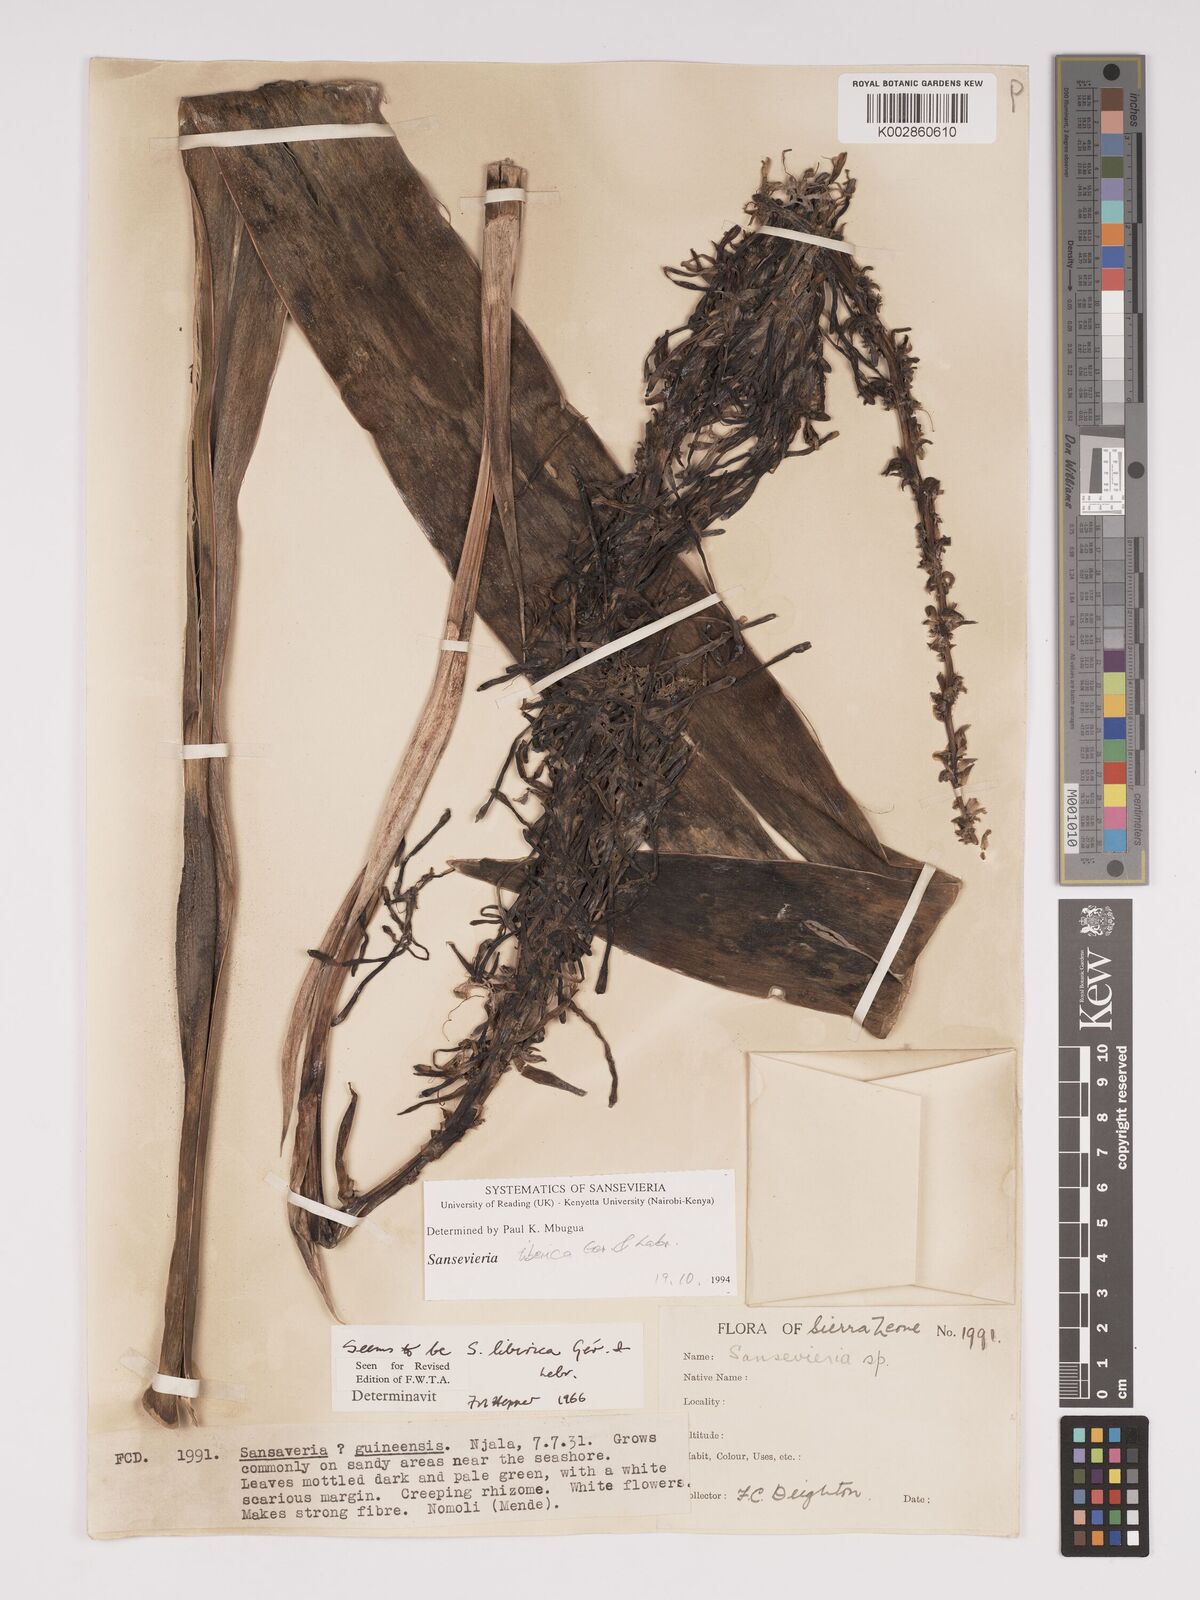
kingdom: Plantae
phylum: Tracheophyta
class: Liliopsida
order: Asparagales
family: Asparagaceae
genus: Dracaena
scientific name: Dracaena liberica
